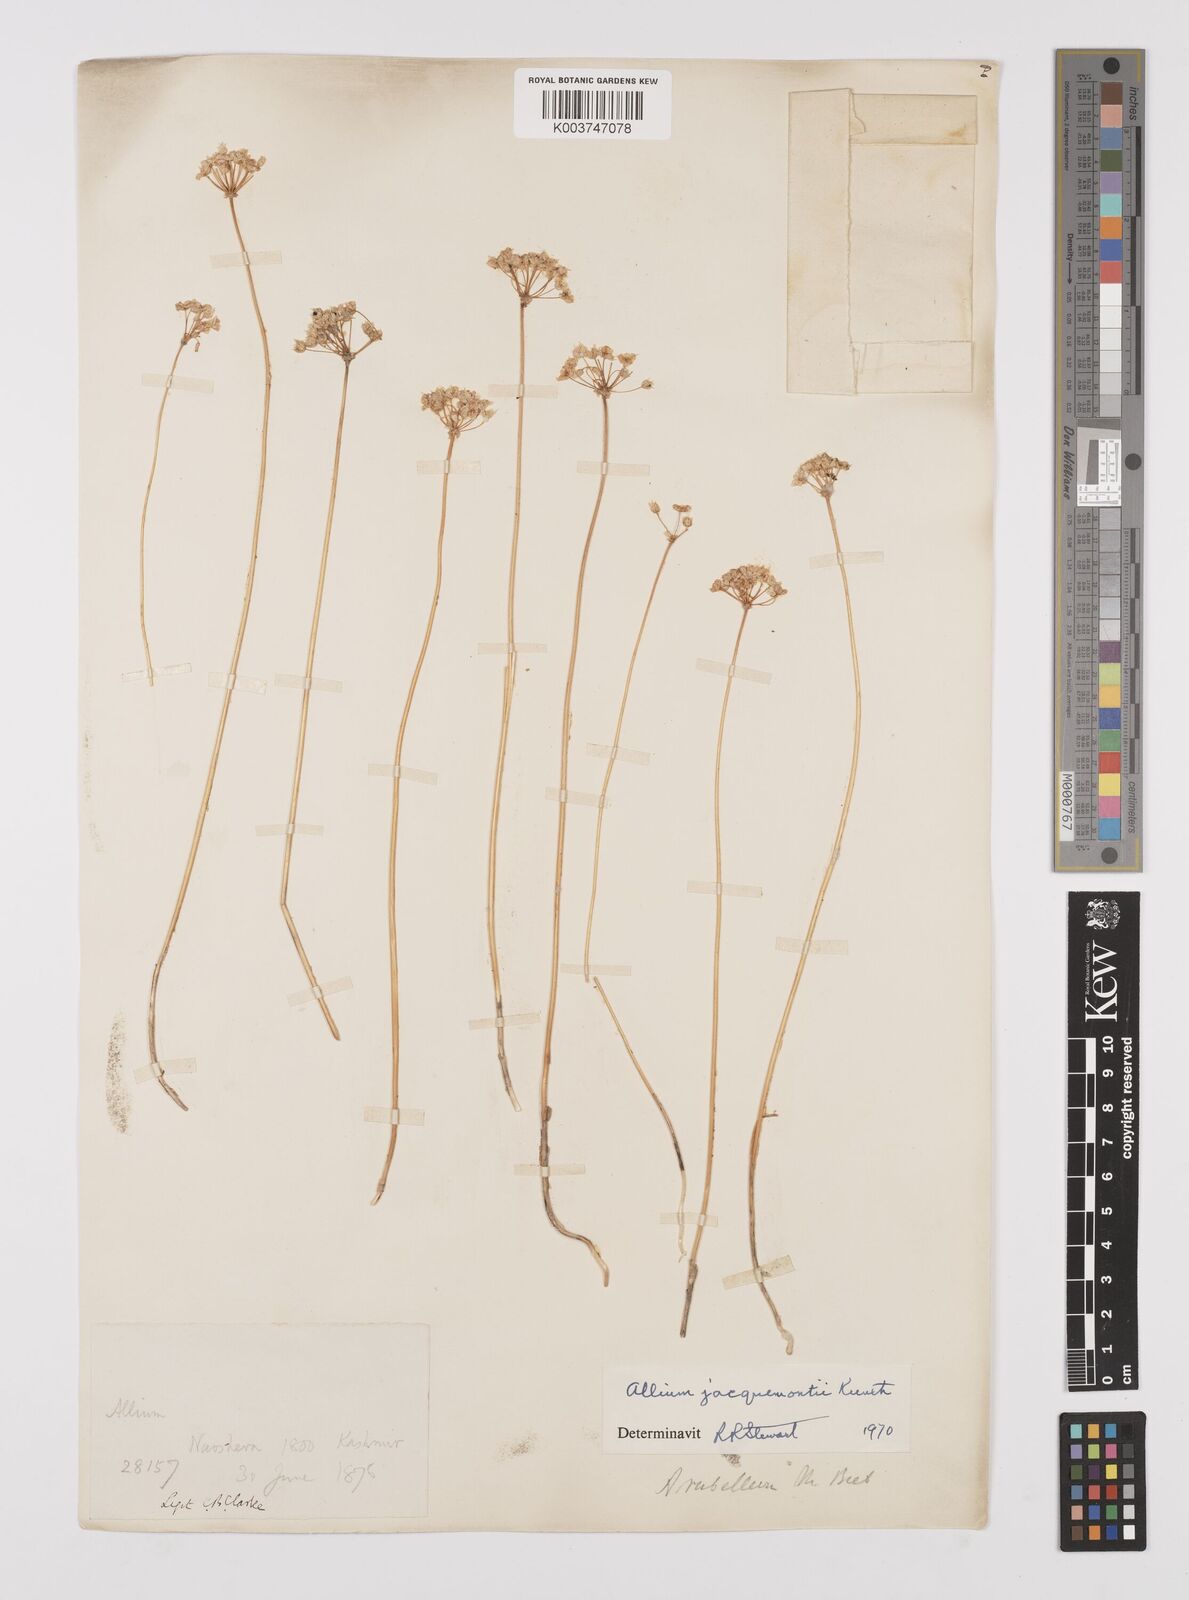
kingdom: Plantae
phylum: Tracheophyta
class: Liliopsida
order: Asparagales
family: Amaryllidaceae
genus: Allium
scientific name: Allium rubellum
